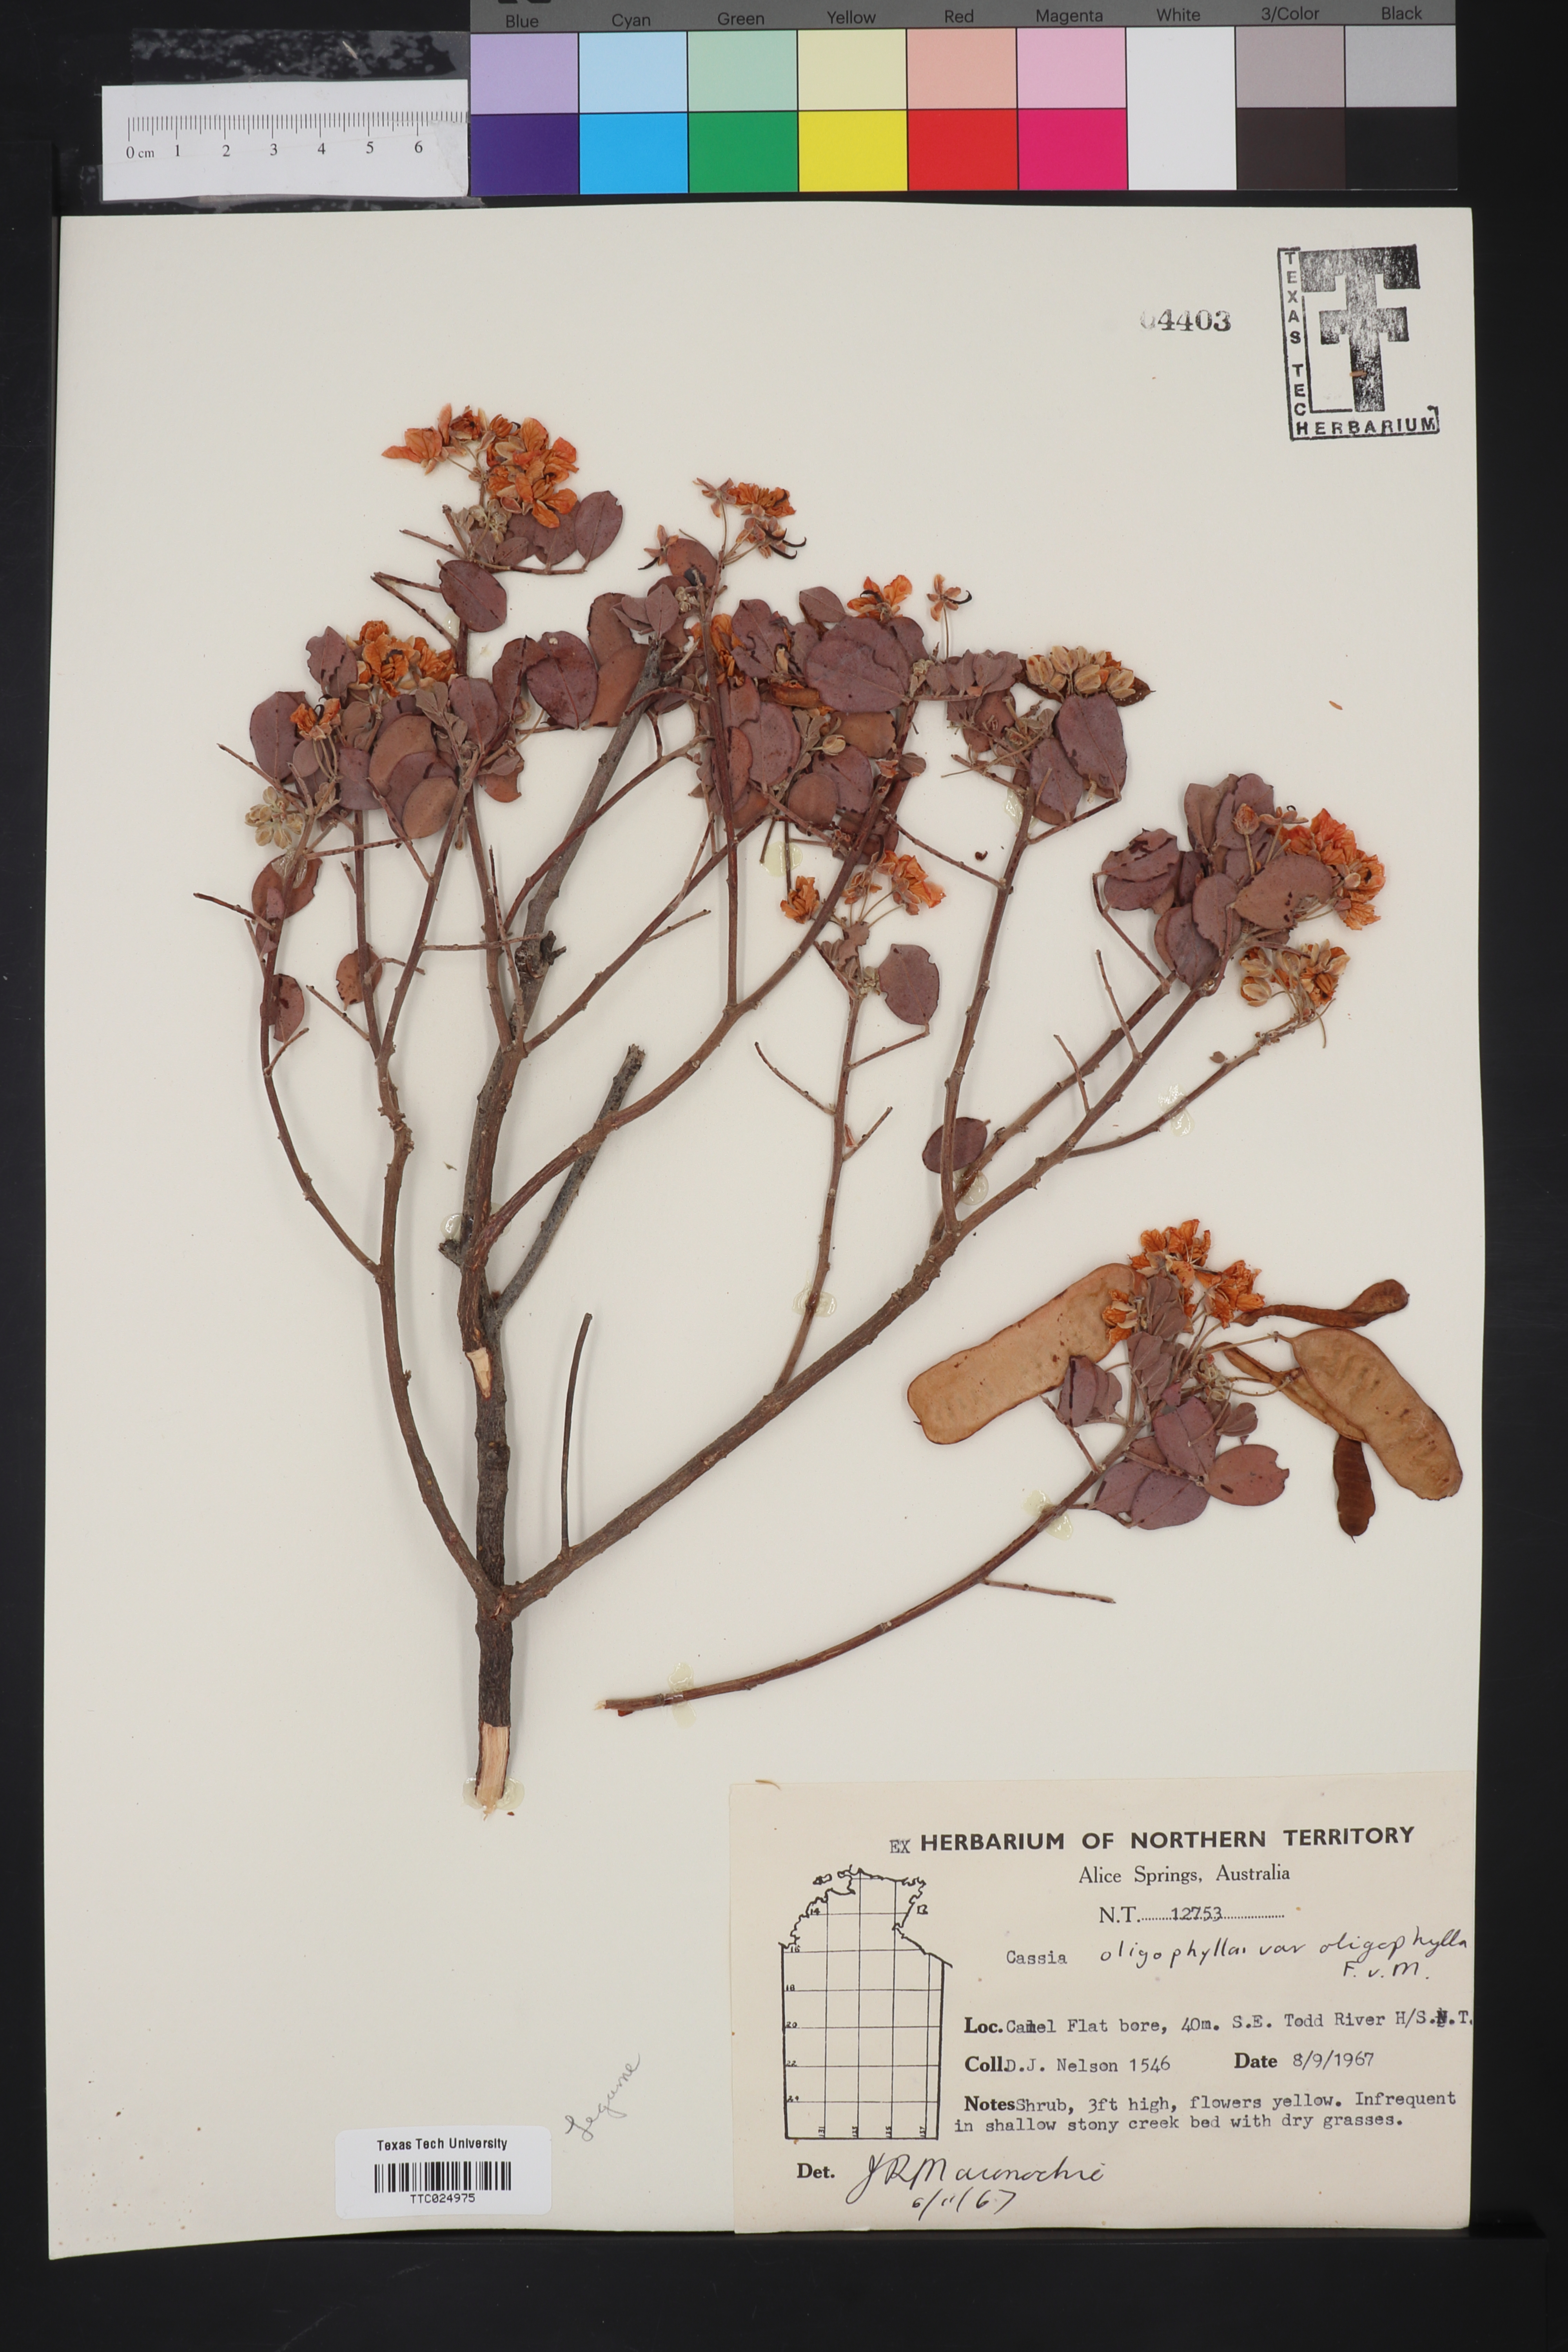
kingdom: Plantae
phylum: Tracheophyta
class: Magnoliopsida
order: Fabales
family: Fabaceae
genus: Senna
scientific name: Senna artemisioides
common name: Burnt-leaved acacia
